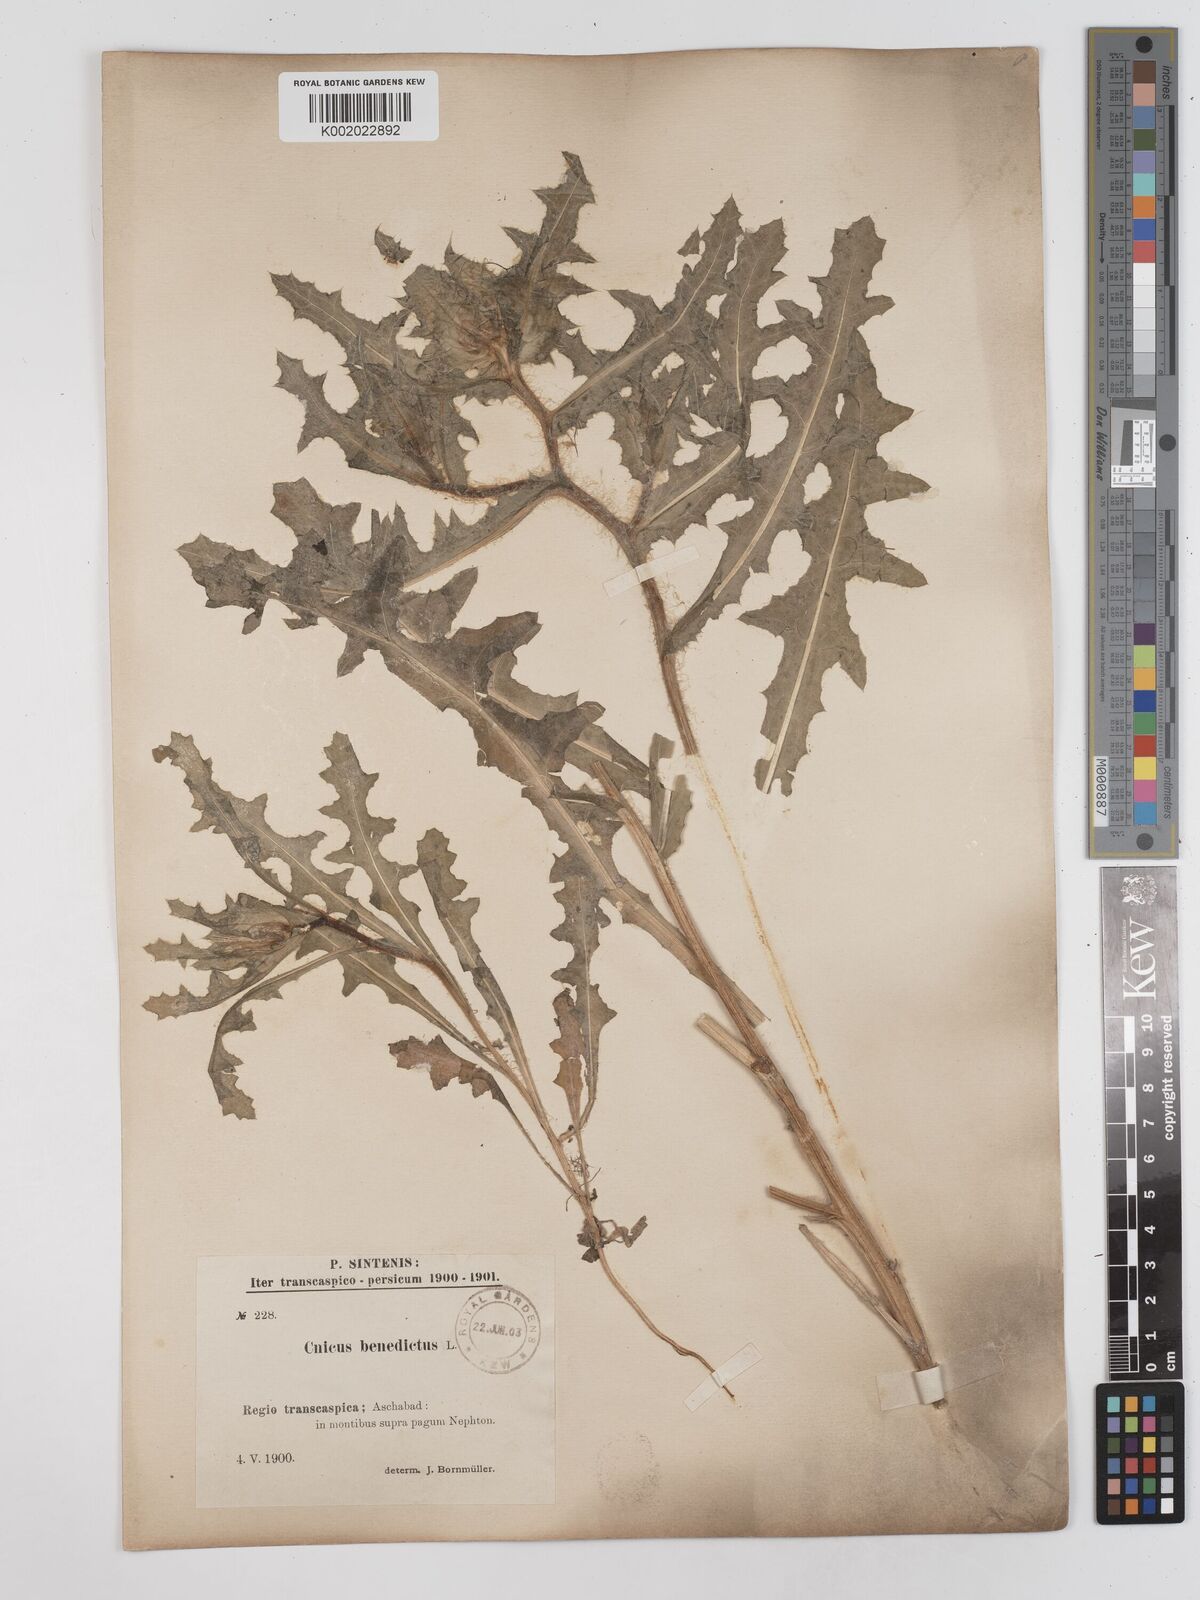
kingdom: Plantae
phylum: Tracheophyta
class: Magnoliopsida
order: Asterales
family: Asteraceae
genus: Centaurea
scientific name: Centaurea benedicta
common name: Blessed thistle
